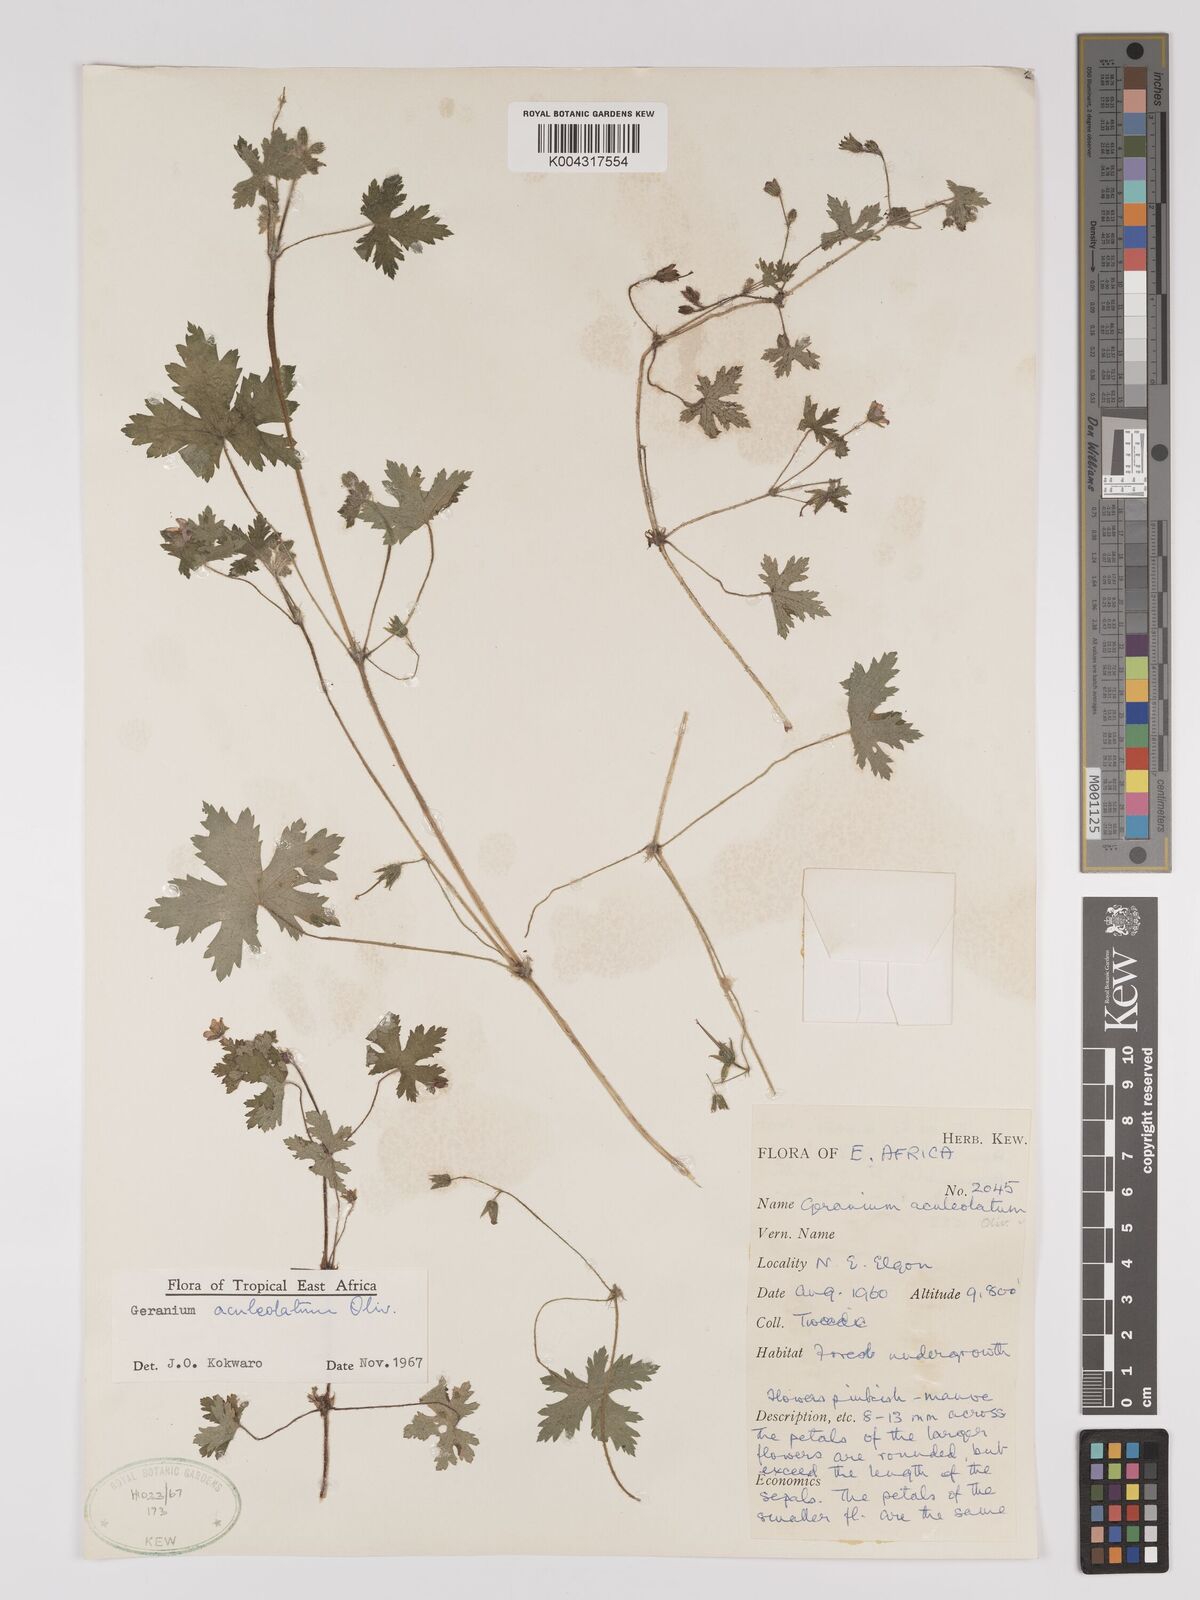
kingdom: Plantae
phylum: Tracheophyta
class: Magnoliopsida
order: Geraniales
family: Geraniaceae
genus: Geranium
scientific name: Geranium aculeolatum
